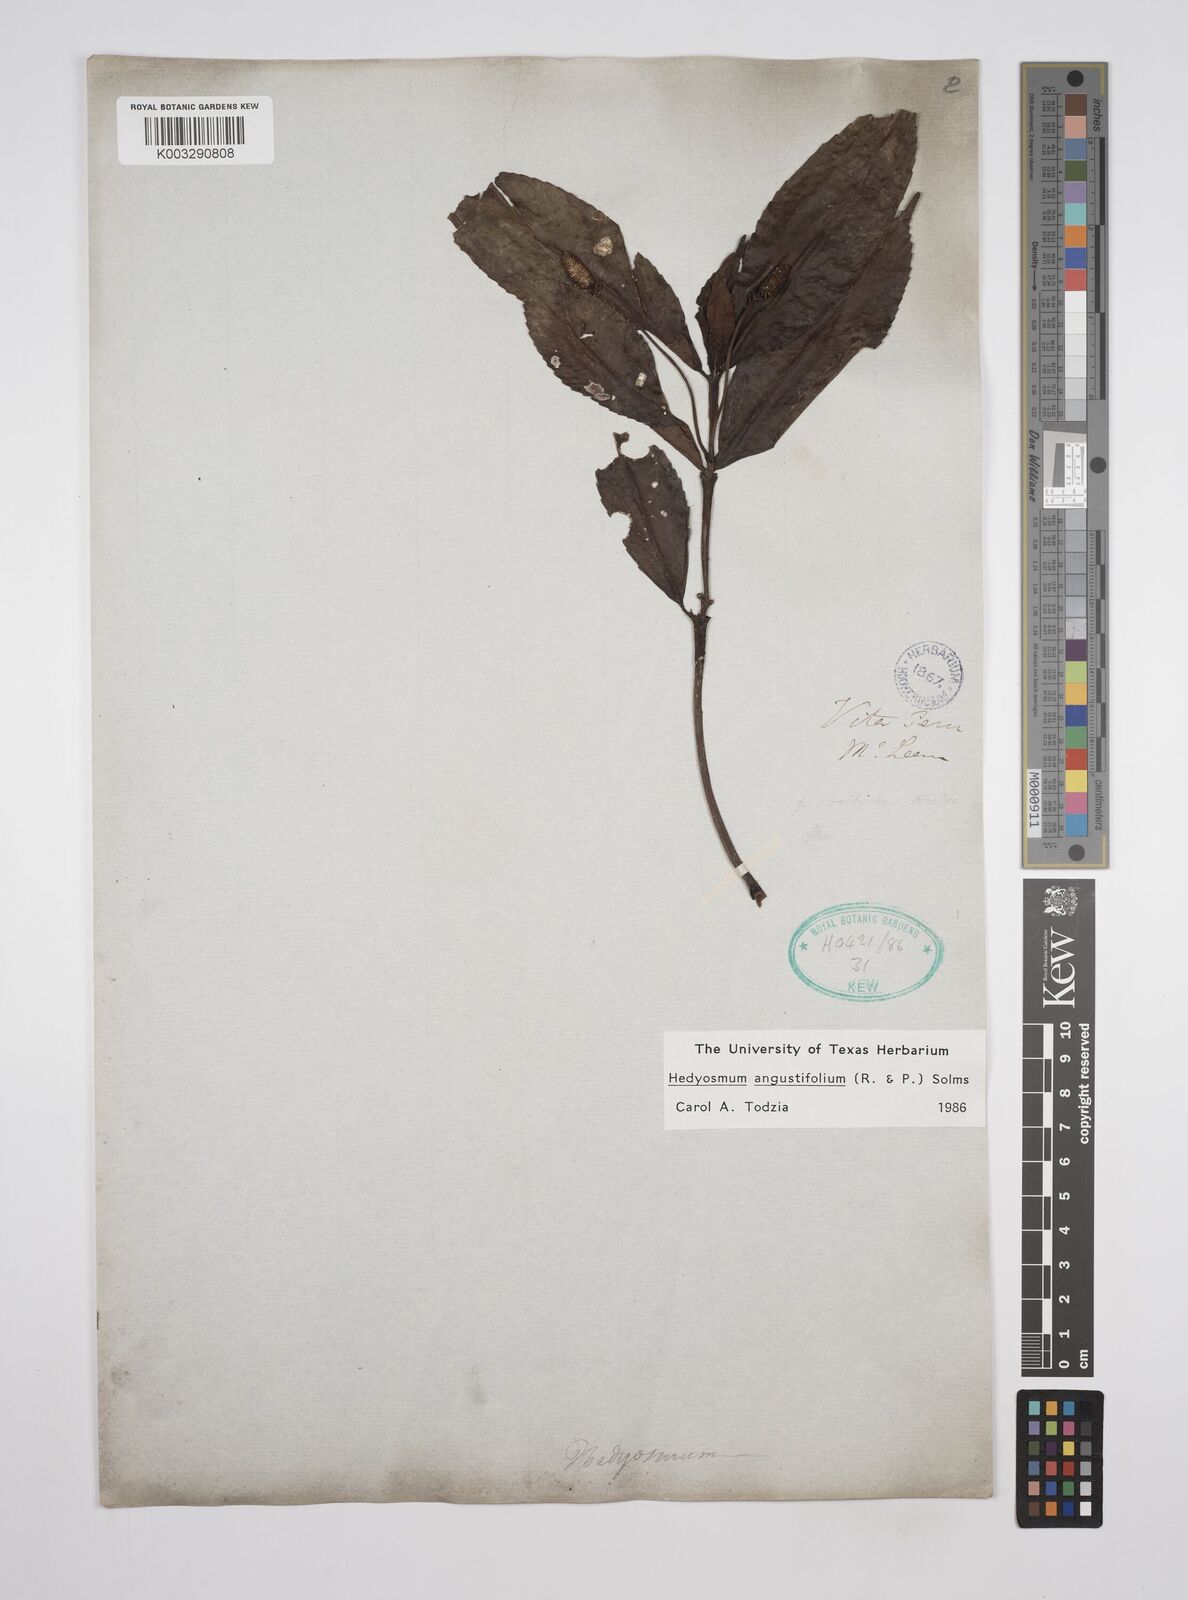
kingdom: Plantae
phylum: Tracheophyta
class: Magnoliopsida
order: Chloranthales
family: Chloranthaceae
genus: Hedyosmum
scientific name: Hedyosmum angustifolium
